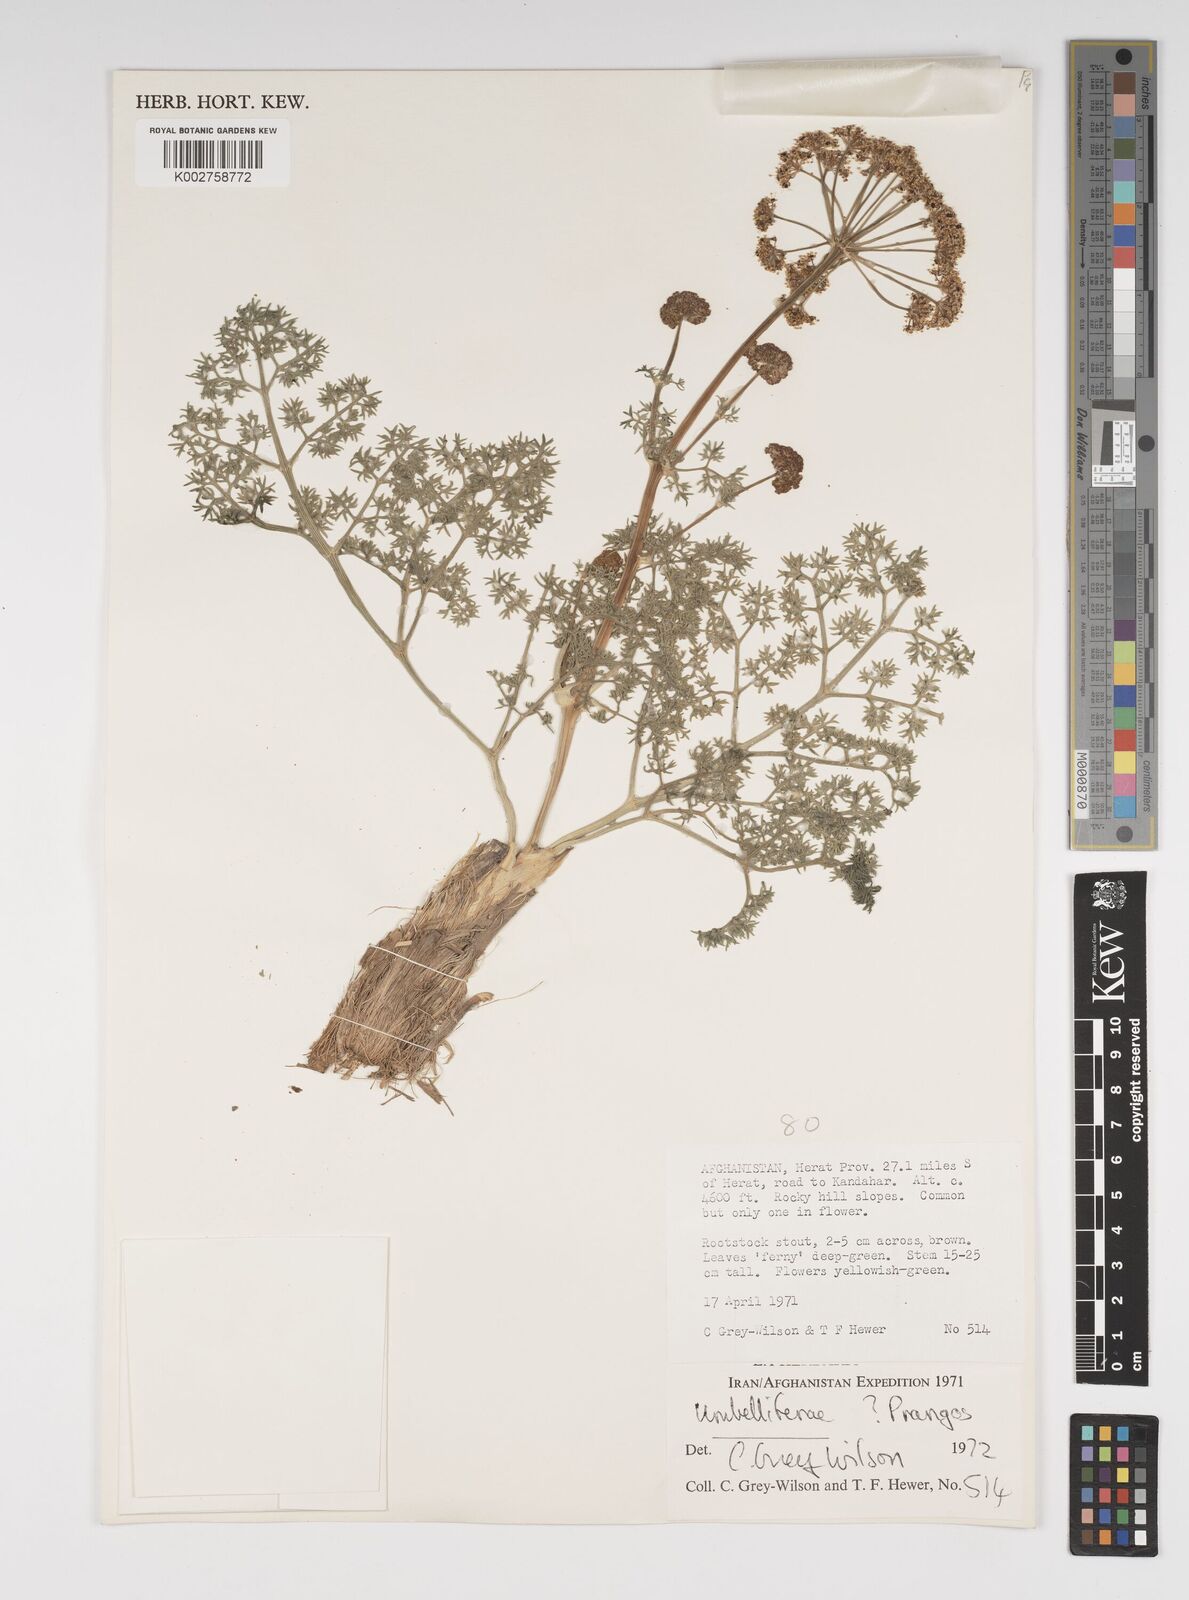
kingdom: Plantae
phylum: Tracheophyta
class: Magnoliopsida
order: Apiales
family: Apiaceae
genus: Cachrys
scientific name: Cachrys
